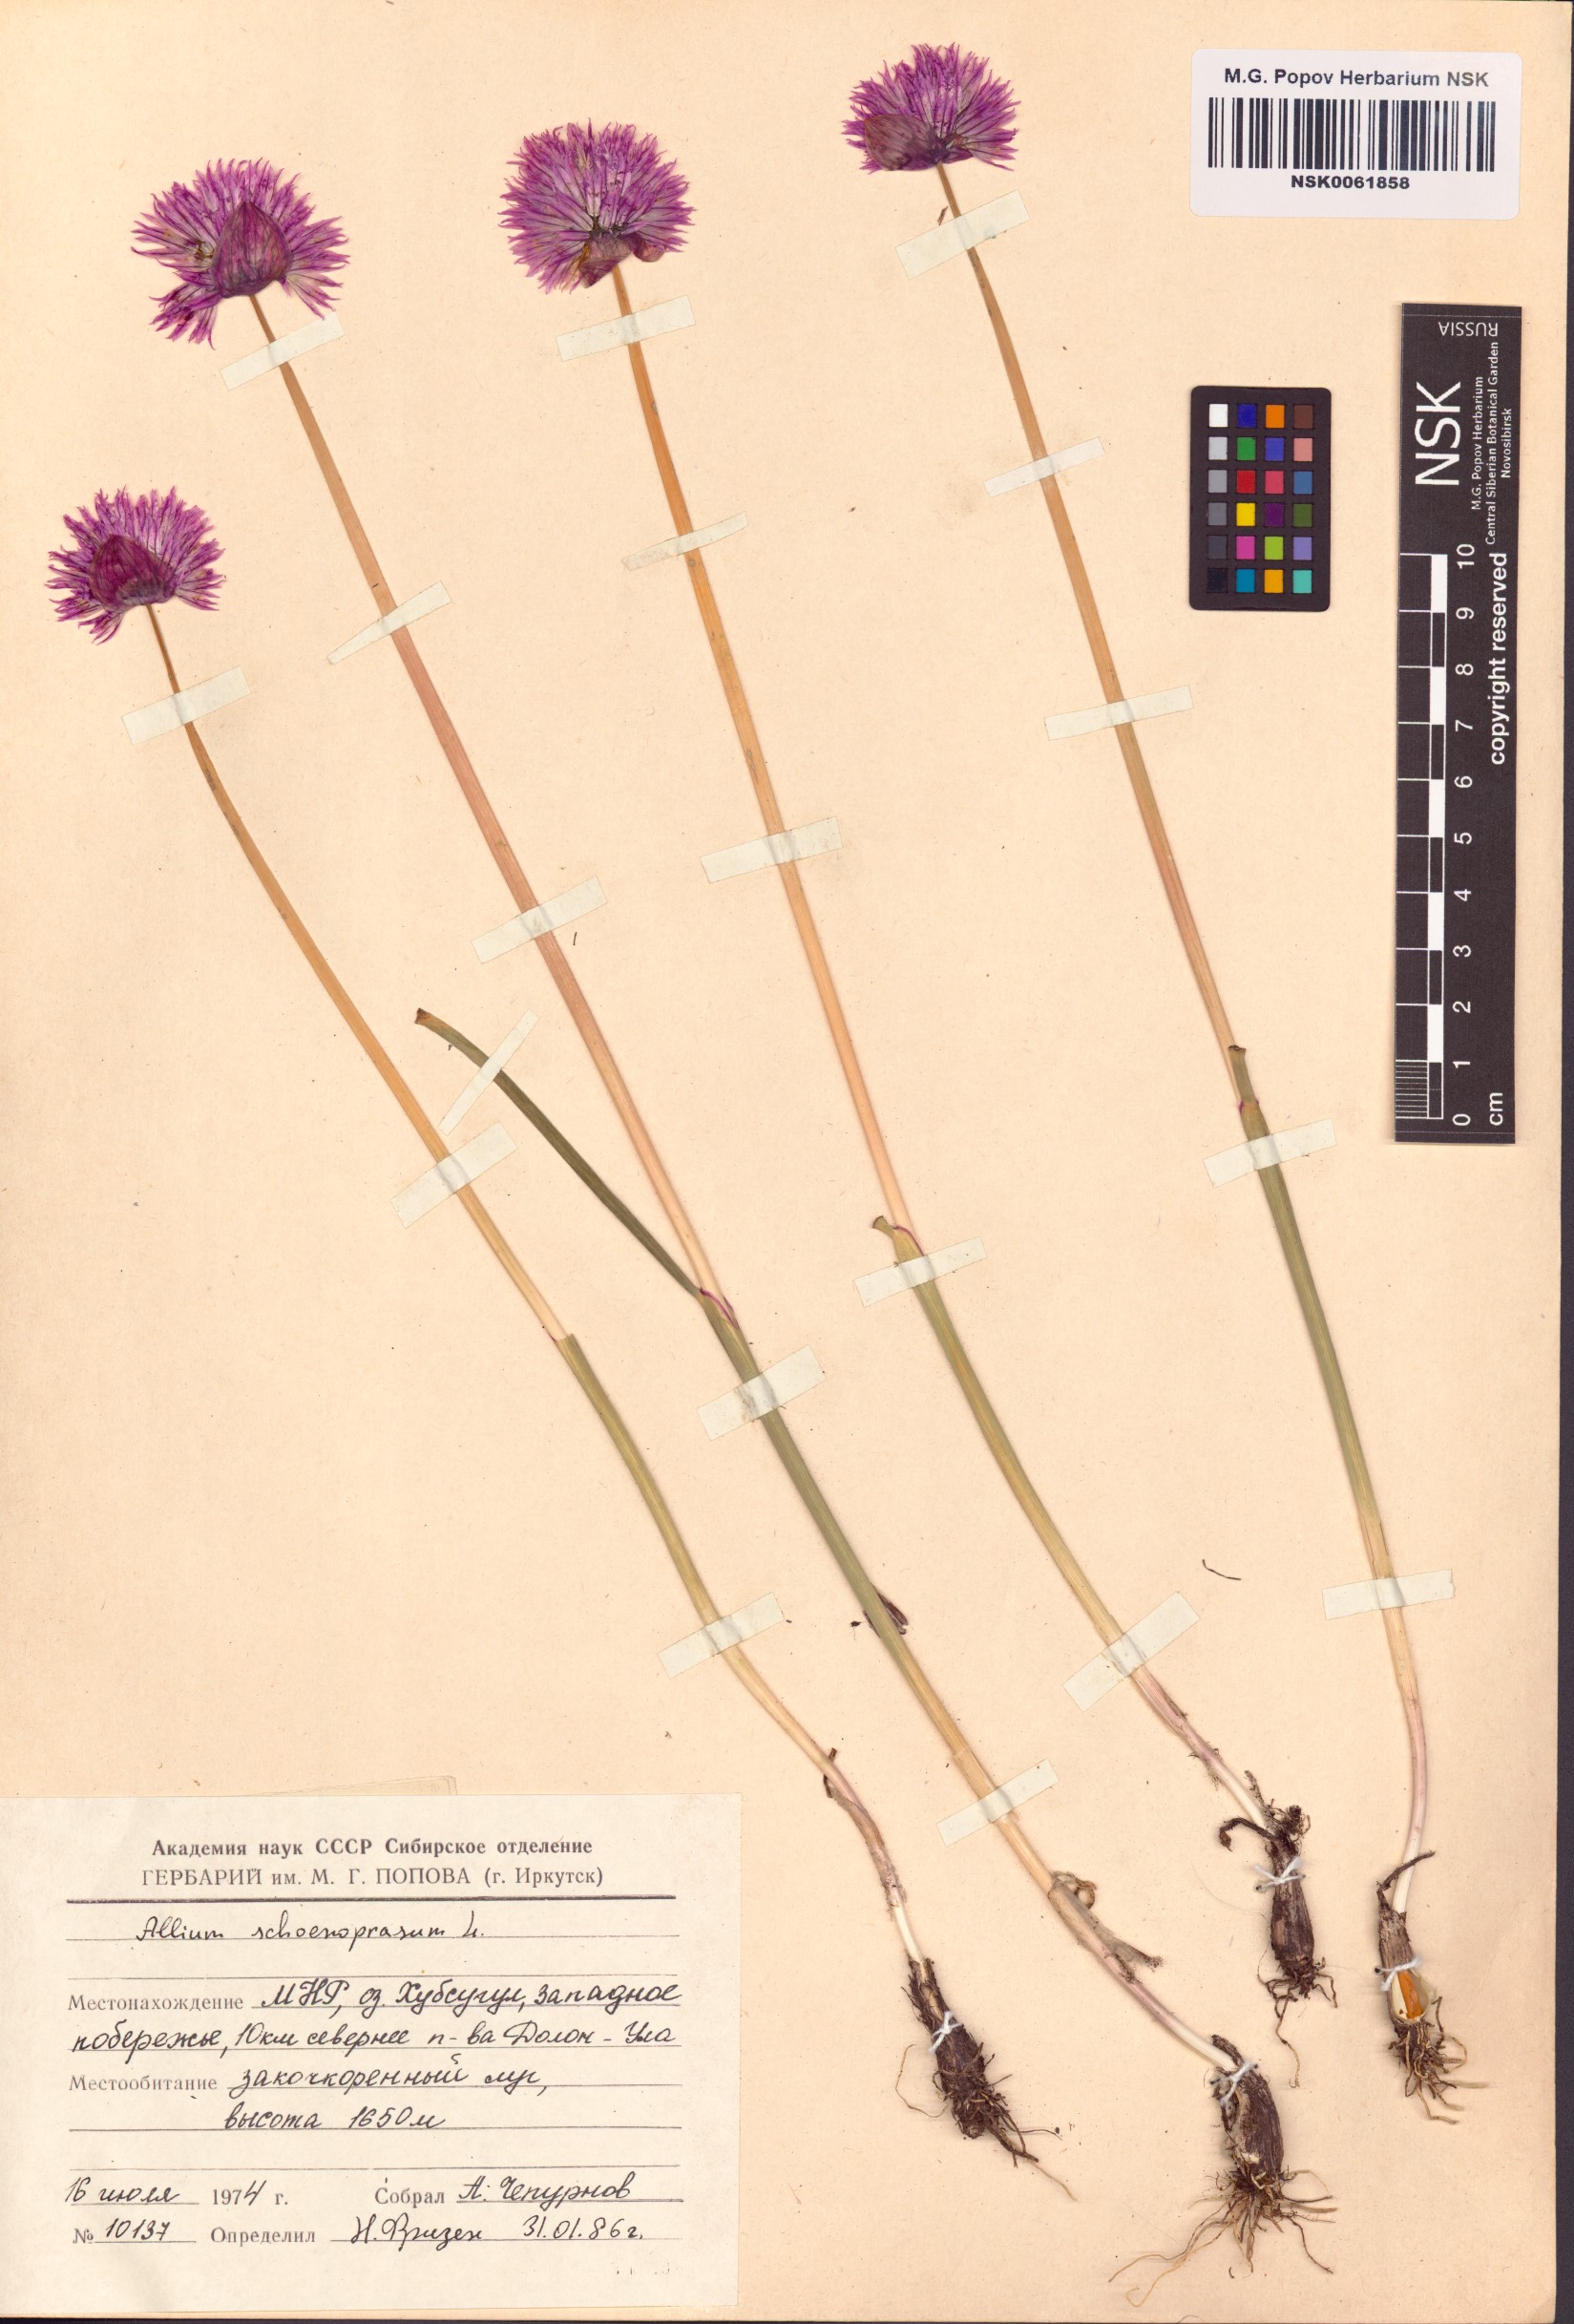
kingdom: Plantae
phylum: Tracheophyta
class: Liliopsida
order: Asparagales
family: Amaryllidaceae
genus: Allium
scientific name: Allium schoenoprasum
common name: Chives
